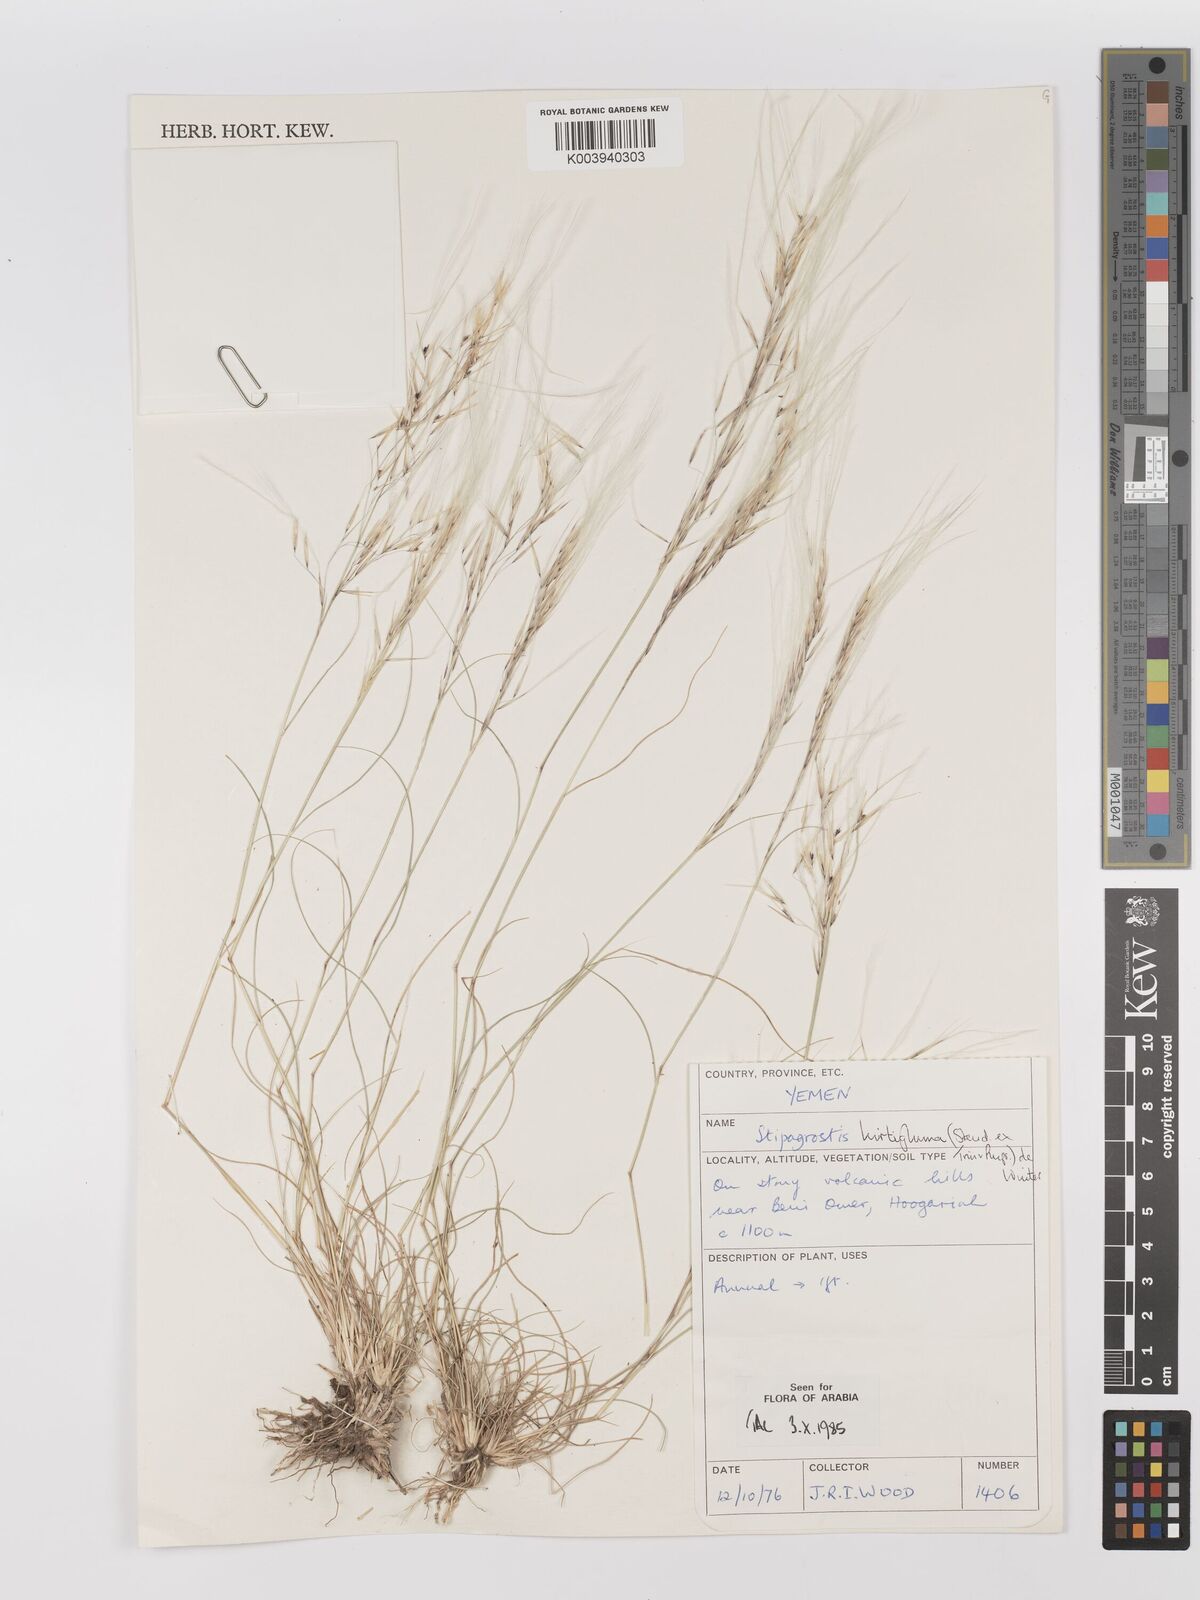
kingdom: Plantae
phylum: Tracheophyta
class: Liliopsida
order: Poales
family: Poaceae
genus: Stipagrostis
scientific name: Stipagrostis hirtigluma
